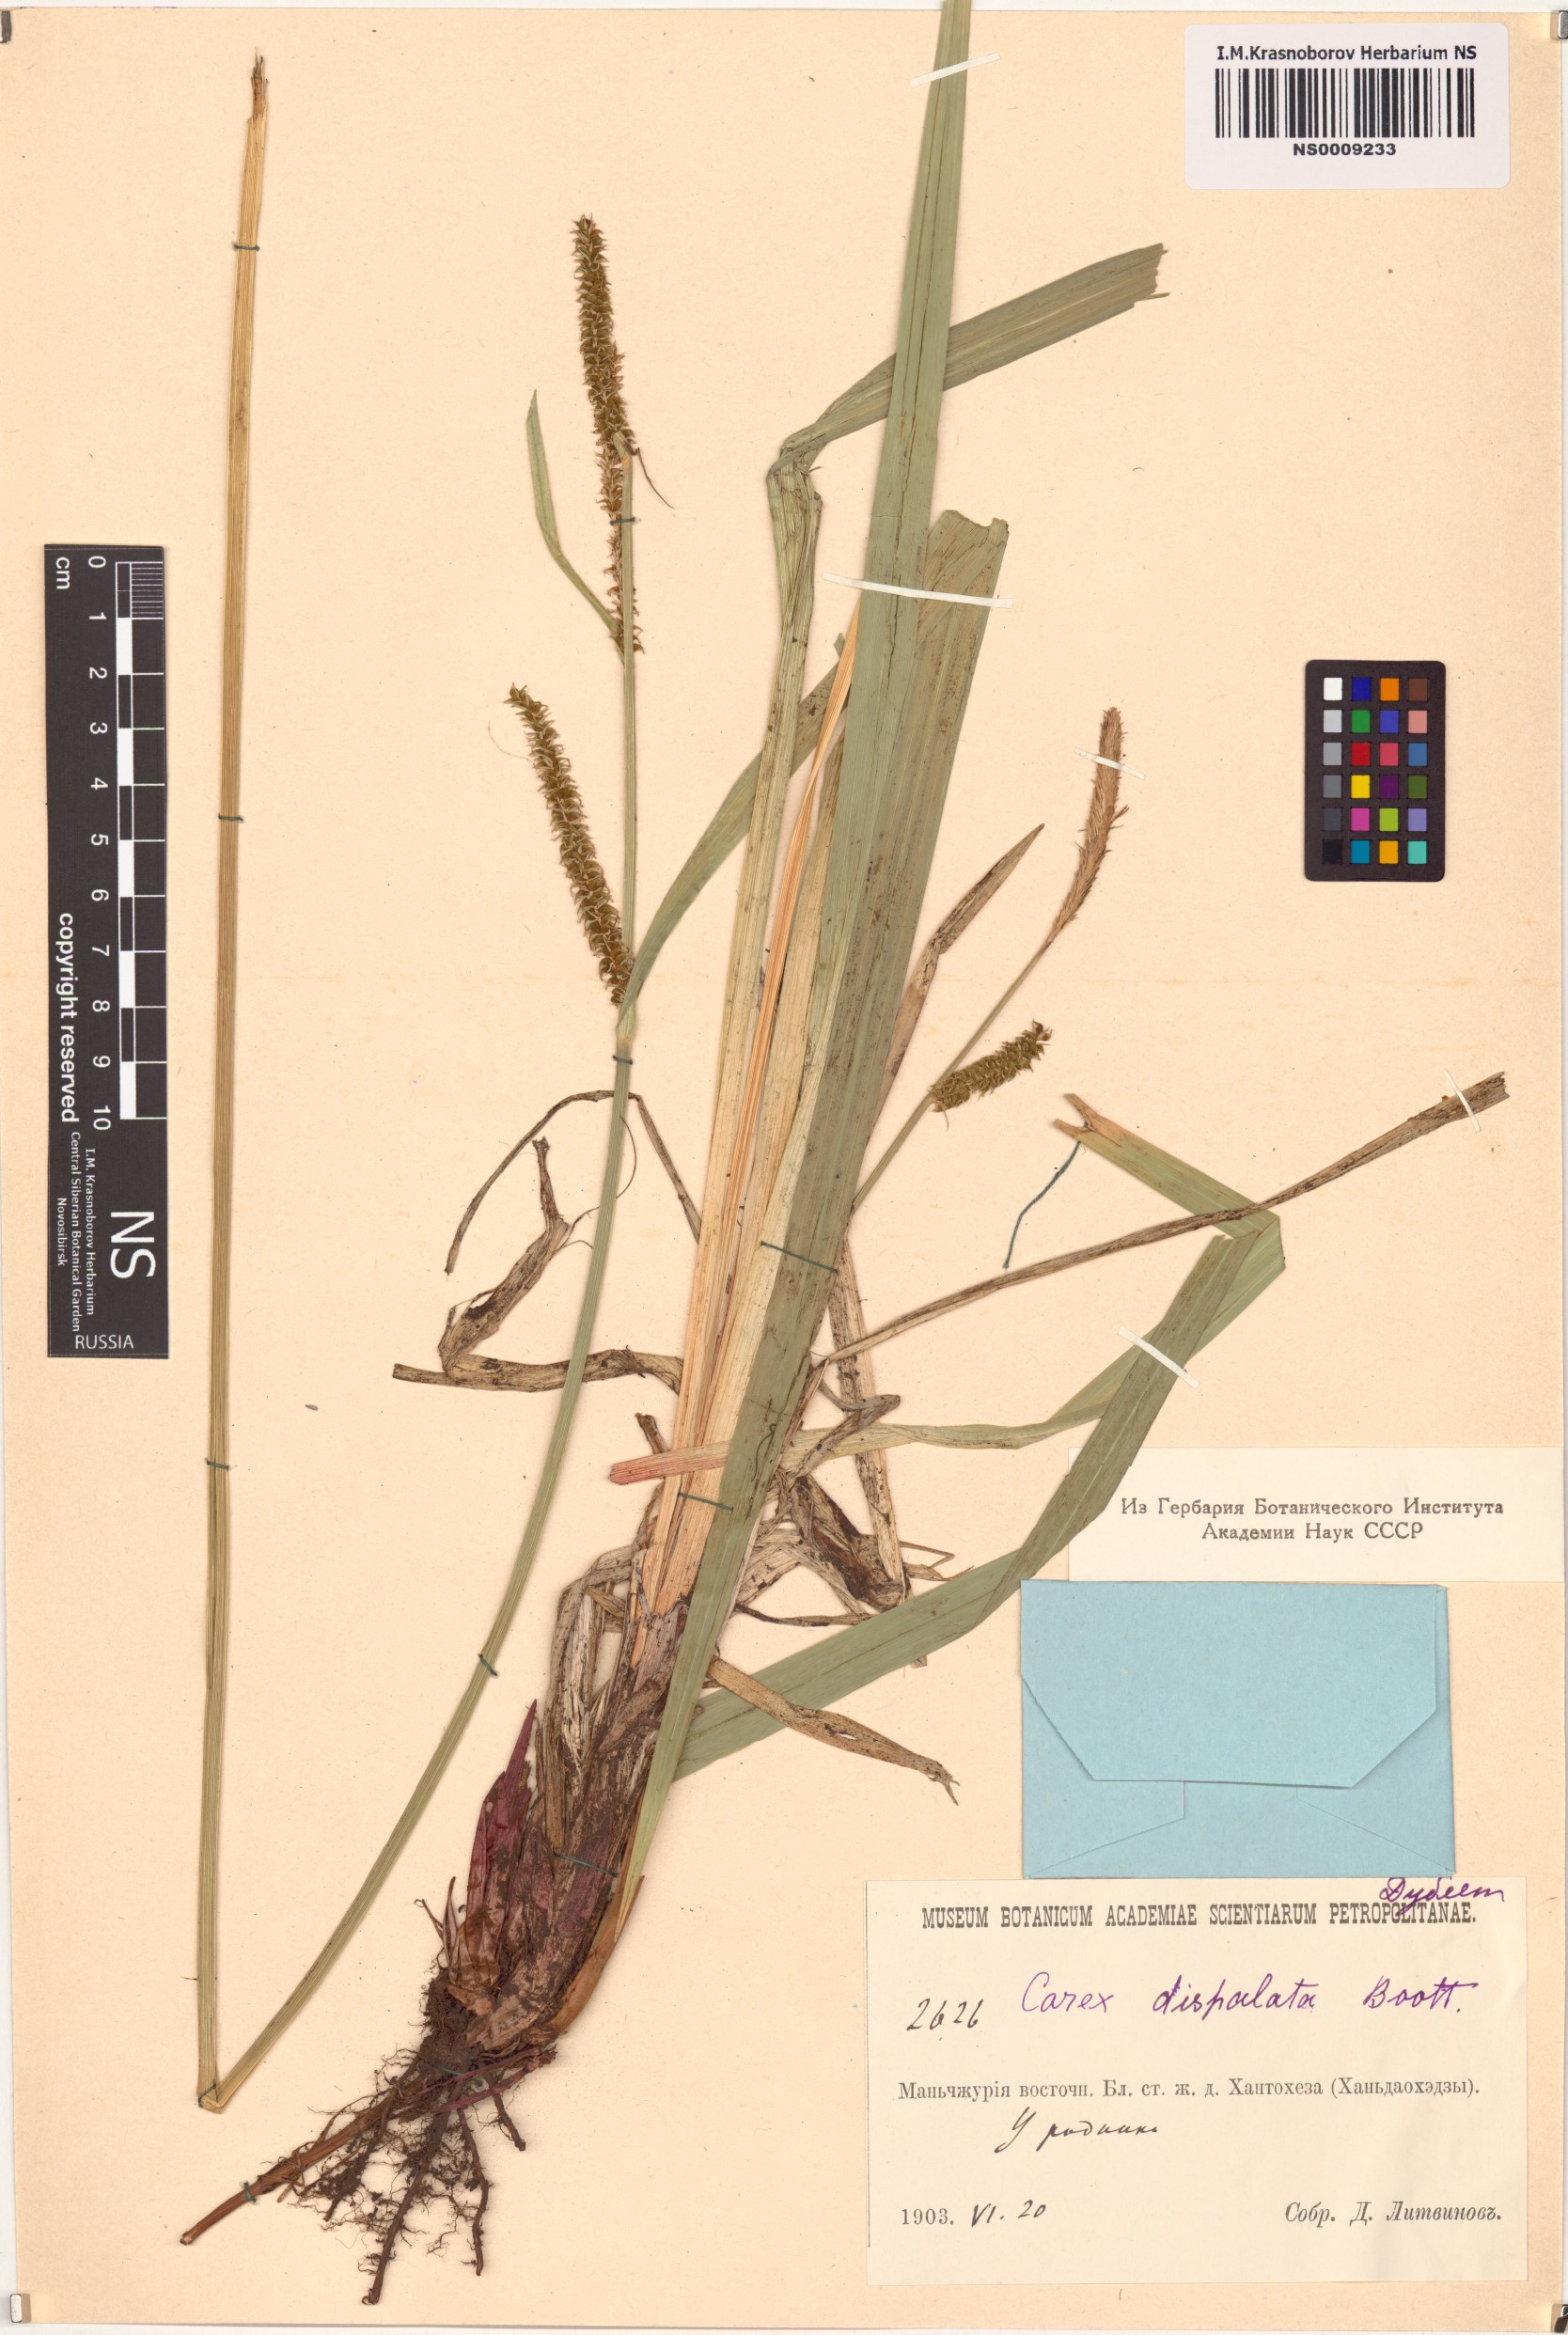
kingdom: Plantae
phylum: Tracheophyta
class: Liliopsida
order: Poales
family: Cyperaceae
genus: Carex
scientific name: Carex dispalata
